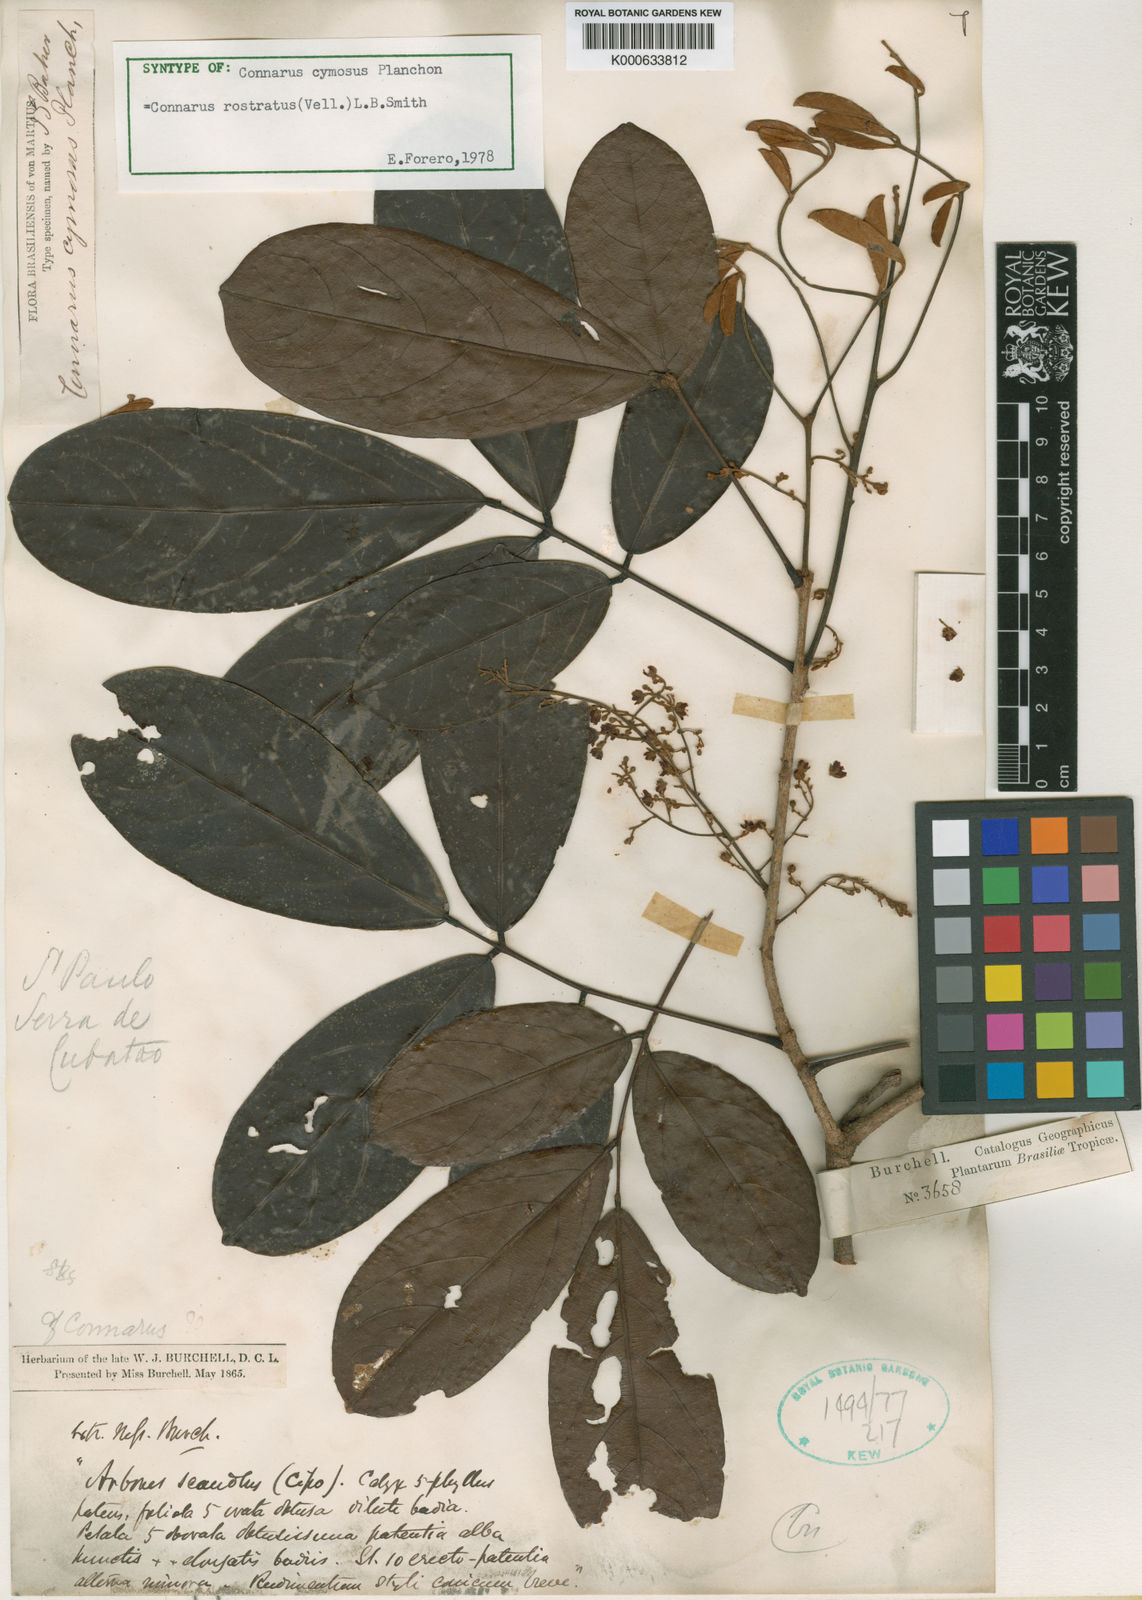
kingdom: Plantae
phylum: Tracheophyta
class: Magnoliopsida
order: Oxalidales
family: Connaraceae
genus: Connarus
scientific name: Connarus rostratus
